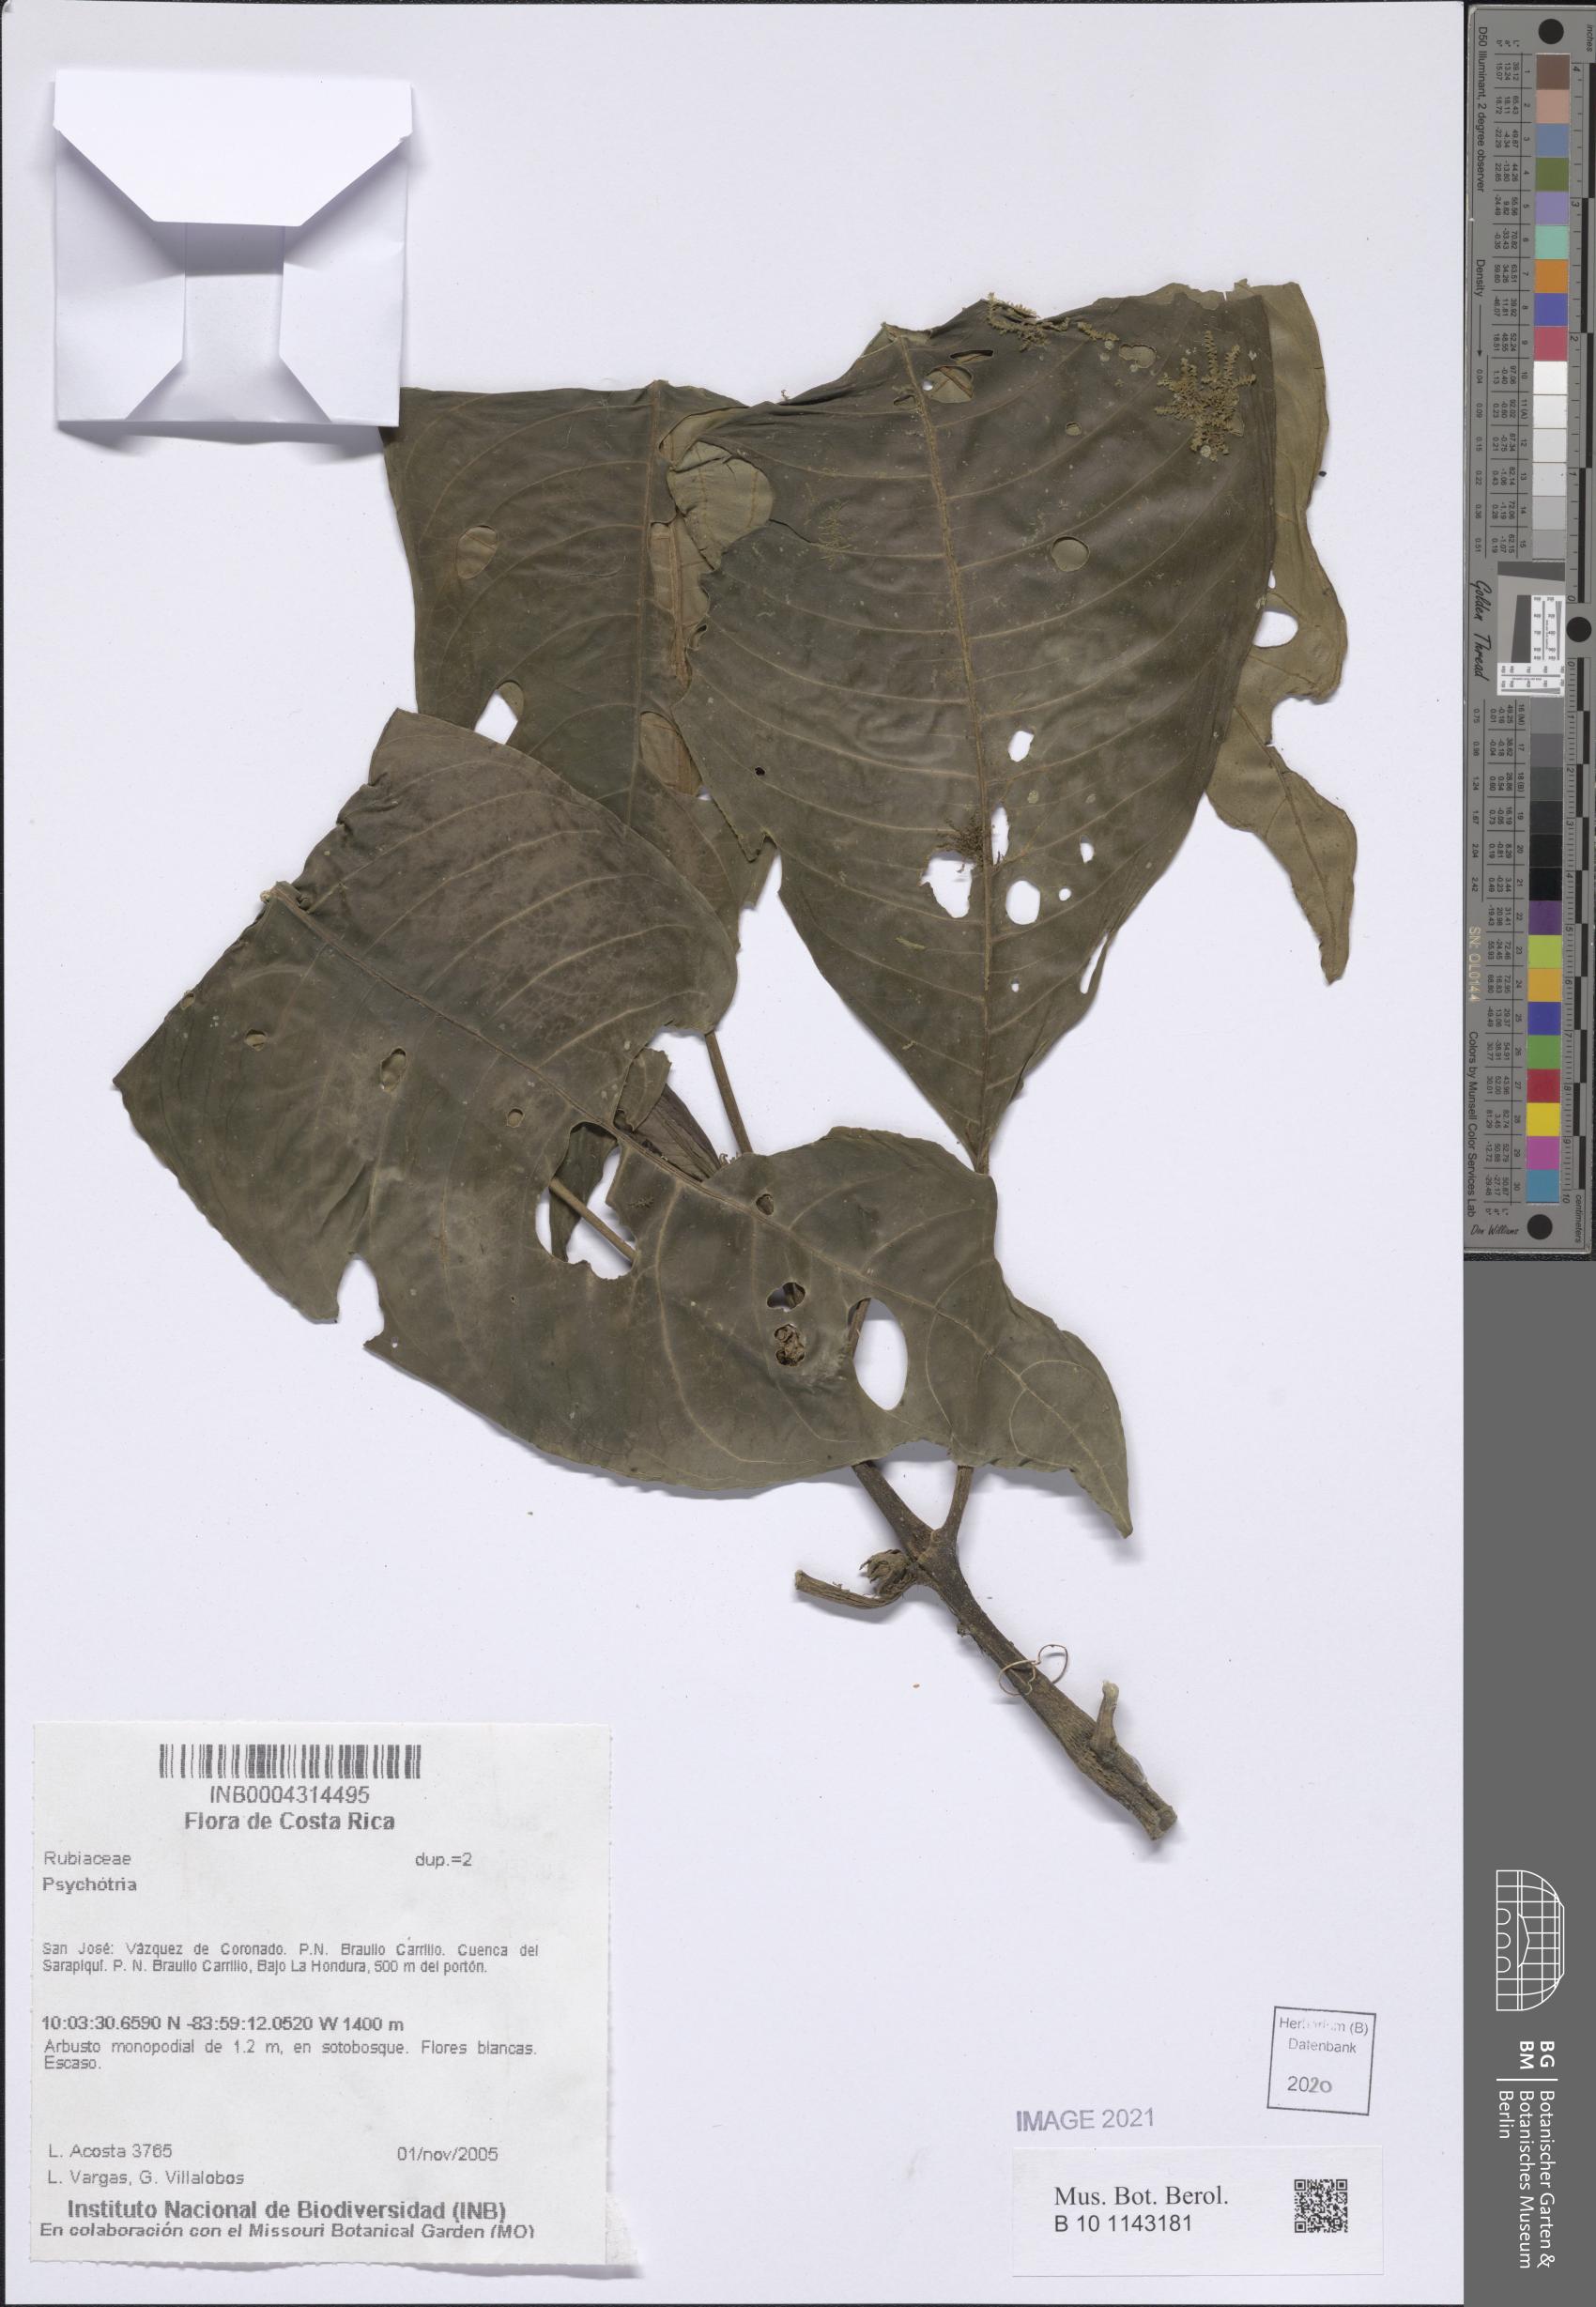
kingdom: Plantae
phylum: Tracheophyta
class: Magnoliopsida
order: Gentianales
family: Rubiaceae
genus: Psychotria
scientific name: Psychotria
